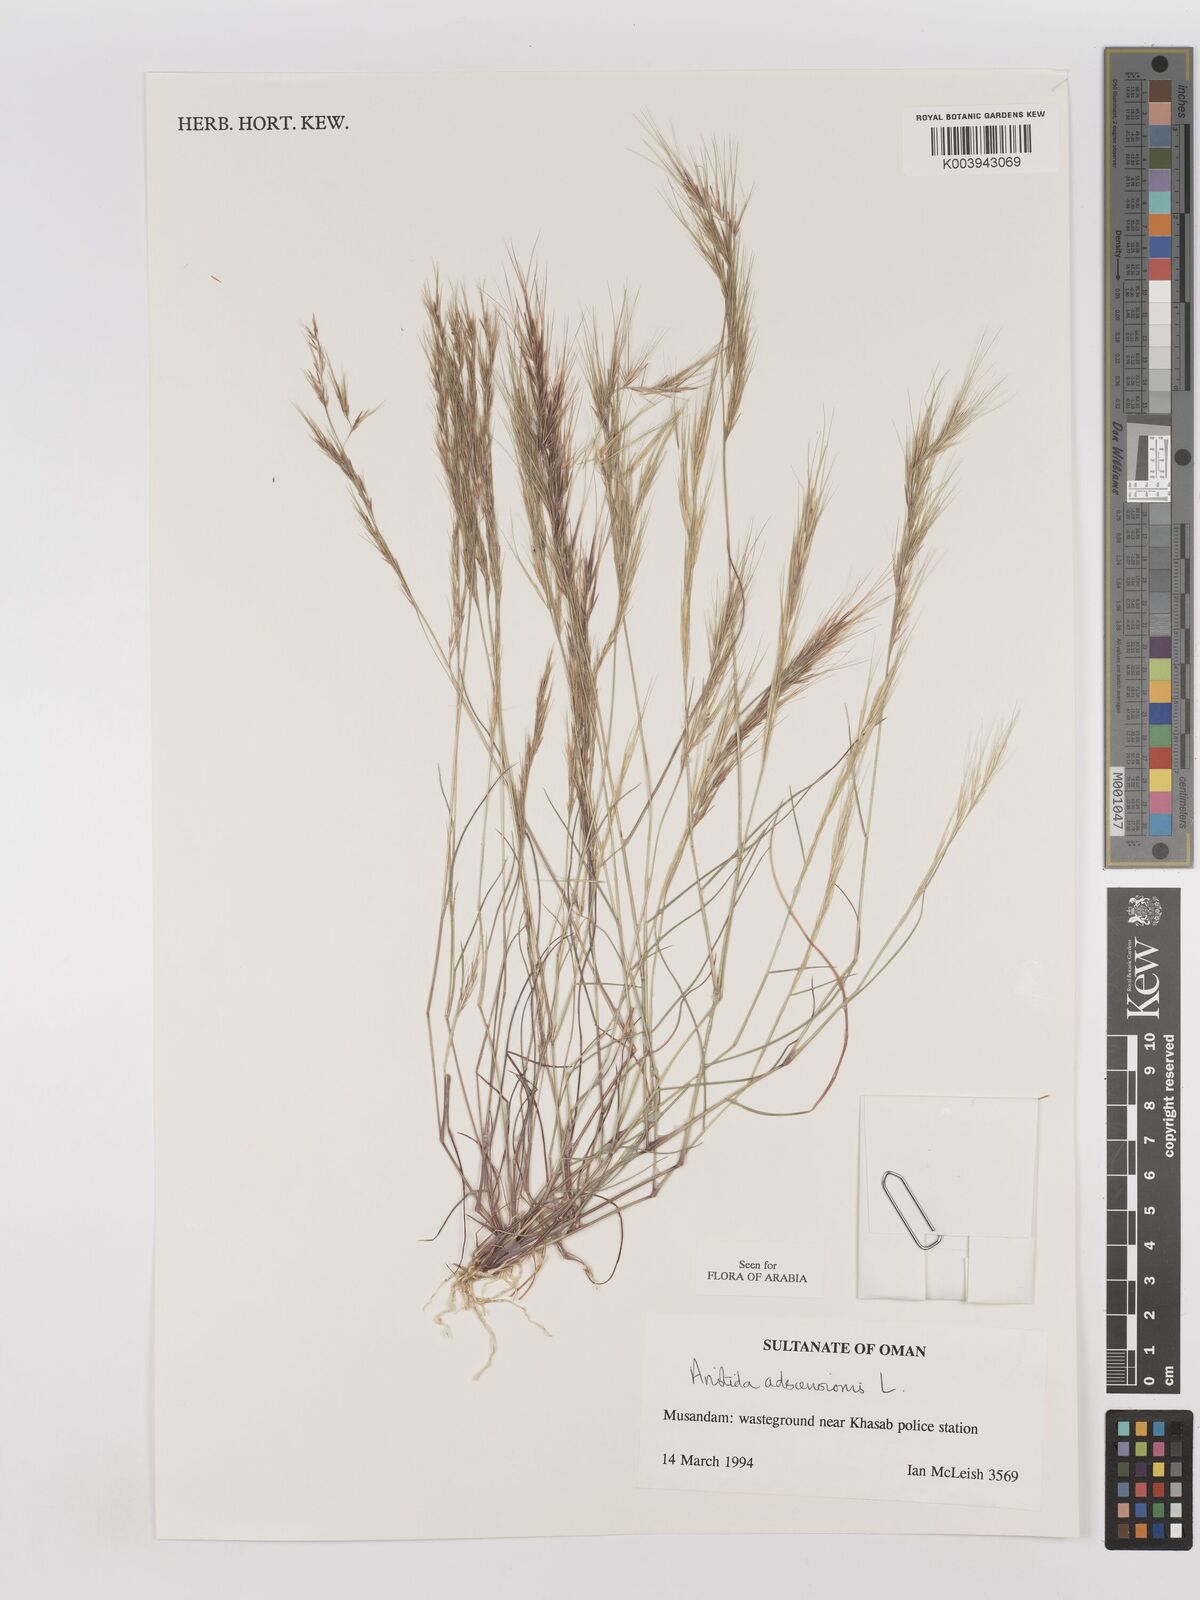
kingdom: Plantae
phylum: Tracheophyta
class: Liliopsida
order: Poales
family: Poaceae
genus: Aristida
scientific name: Aristida adscensionis
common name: Sixweeks threeawn
